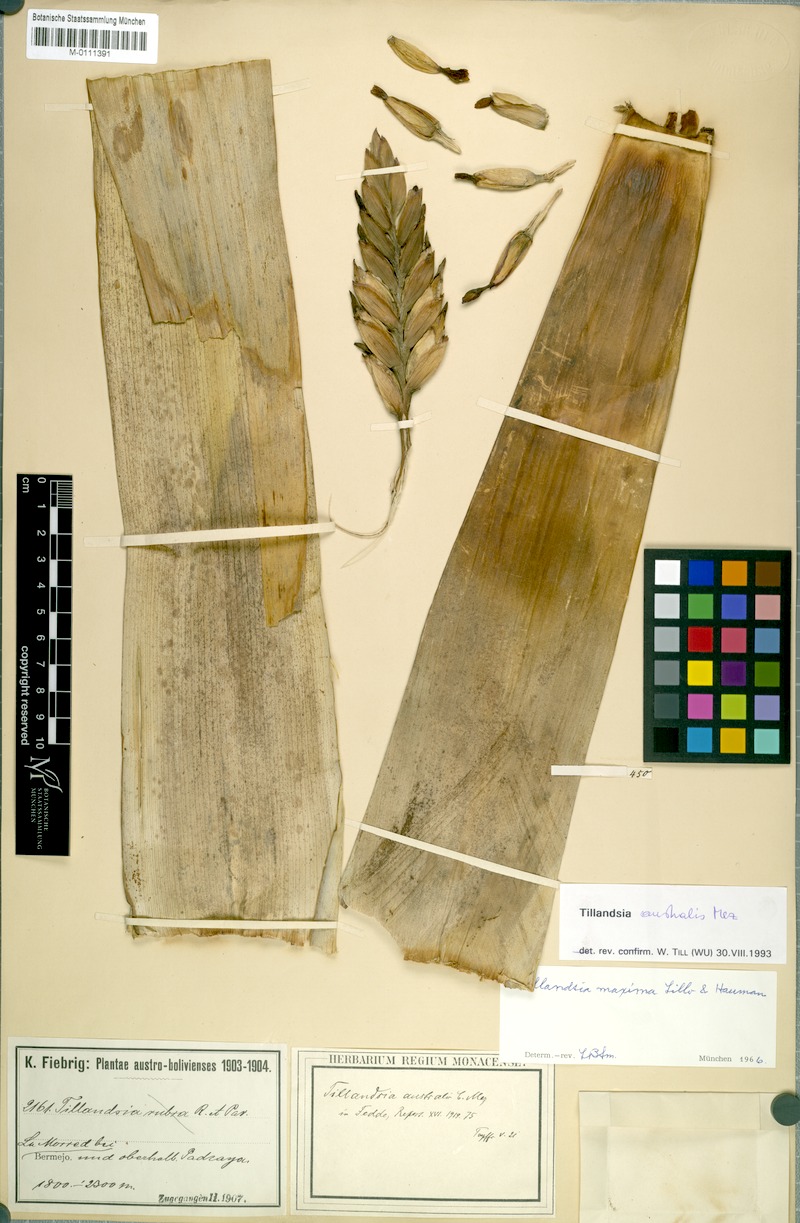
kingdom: Plantae
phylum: Tracheophyta
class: Liliopsida
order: Poales
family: Bromeliaceae
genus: Tillandsia
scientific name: Tillandsia australis
